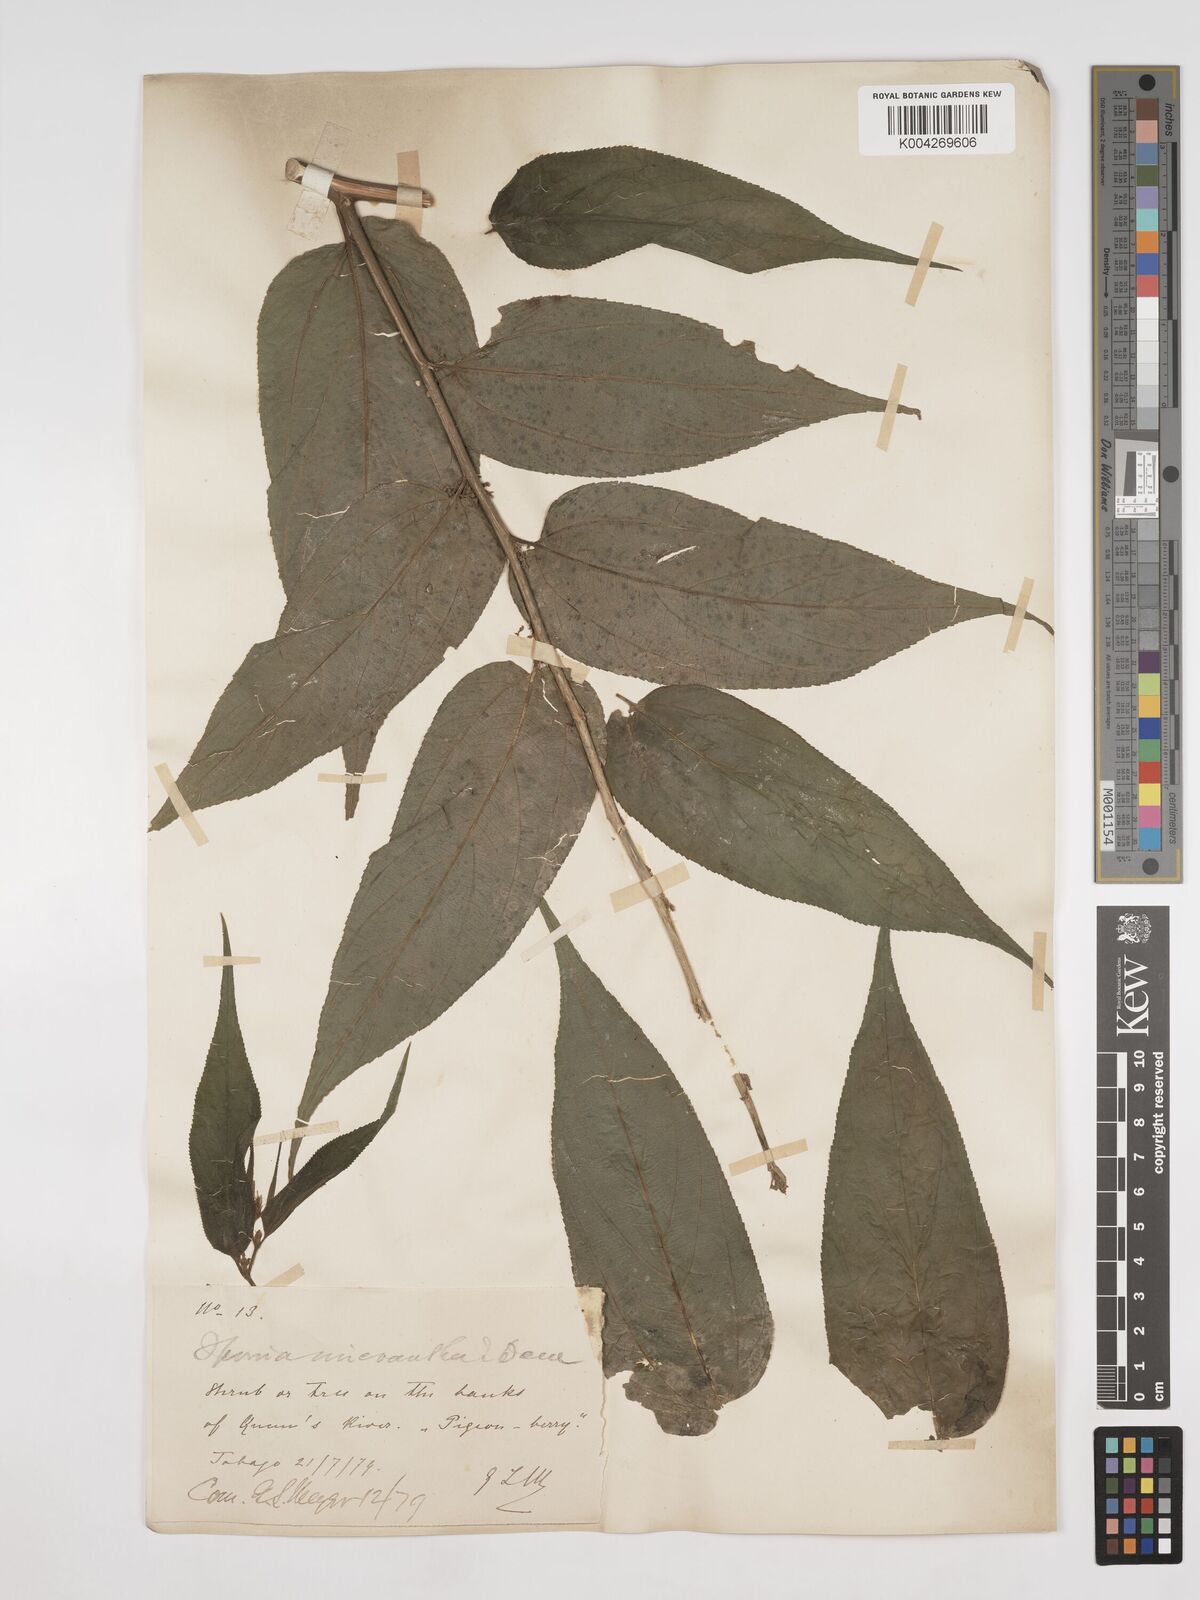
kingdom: Plantae
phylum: Tracheophyta
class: Magnoliopsida
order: Rosales
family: Cannabaceae
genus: Trema
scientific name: Trema micranthum
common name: Jamaican nettletree
